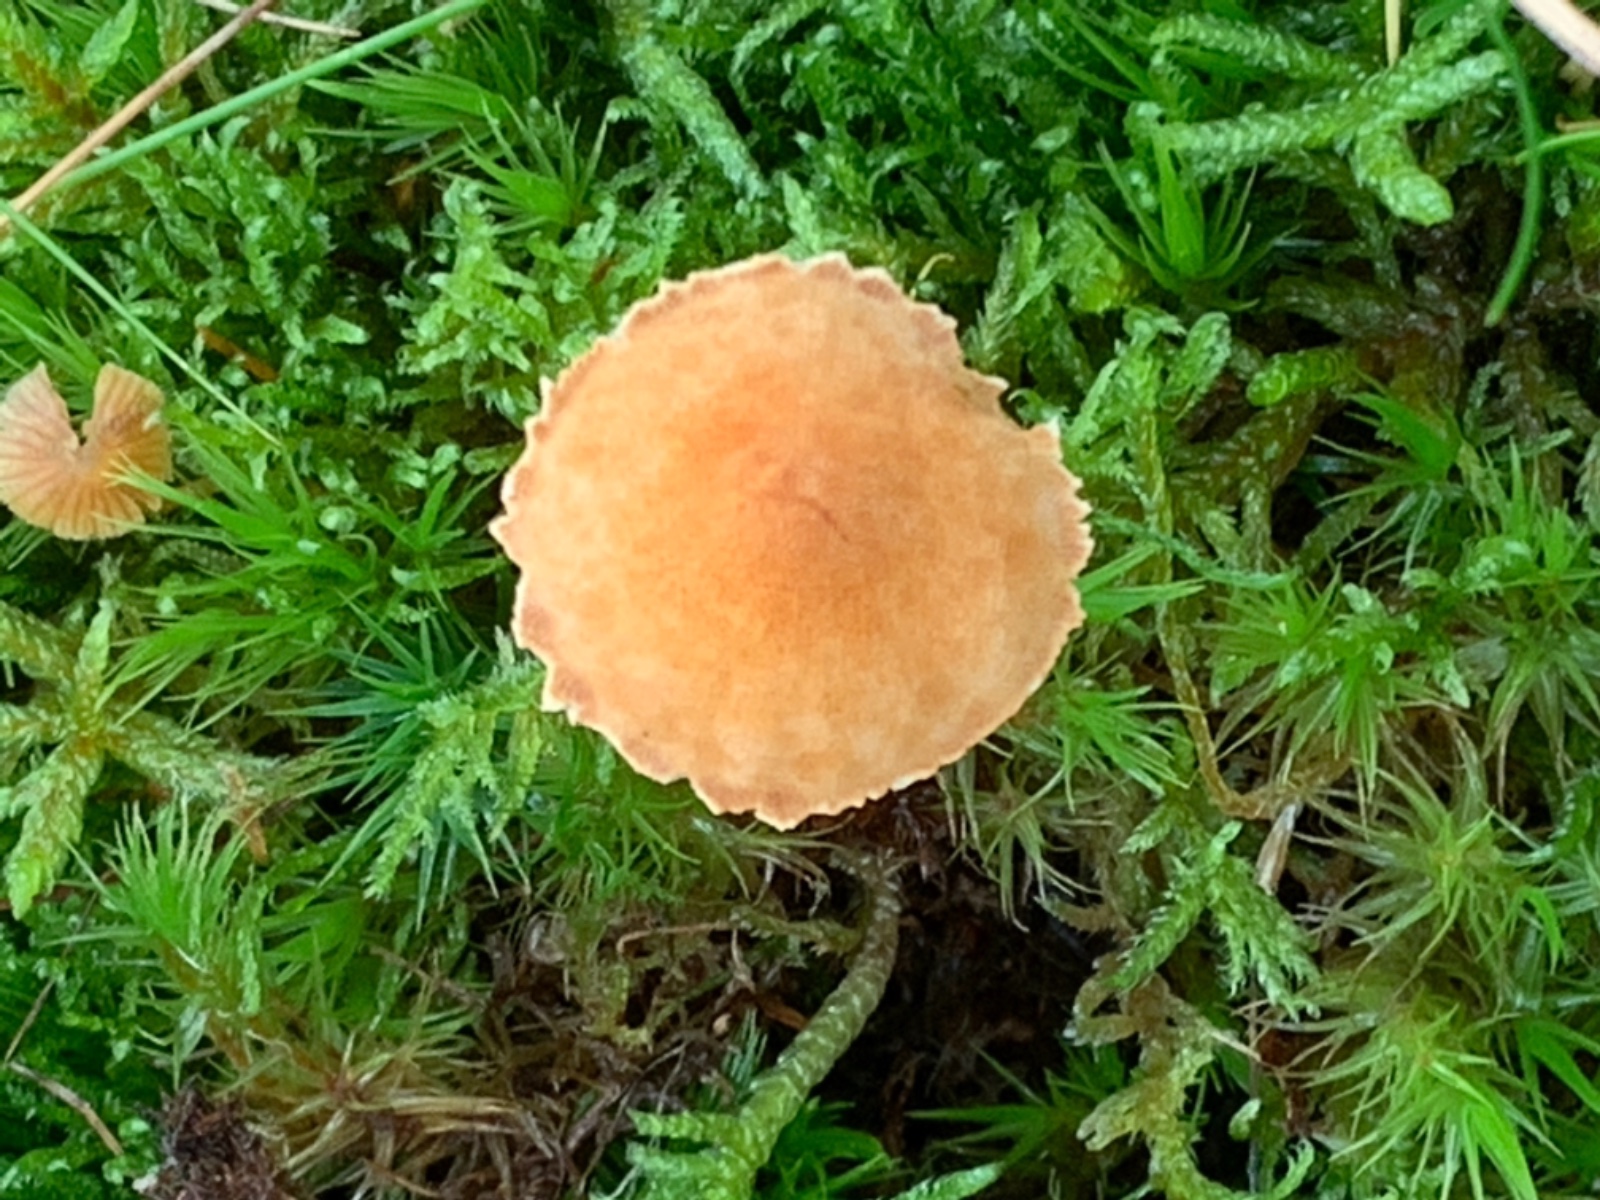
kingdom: Fungi
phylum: Basidiomycota
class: Agaricomycetes
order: Agaricales
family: Tricholomataceae
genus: Cystoderma
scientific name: Cystoderma amianthinum
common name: okkergul grynhat
